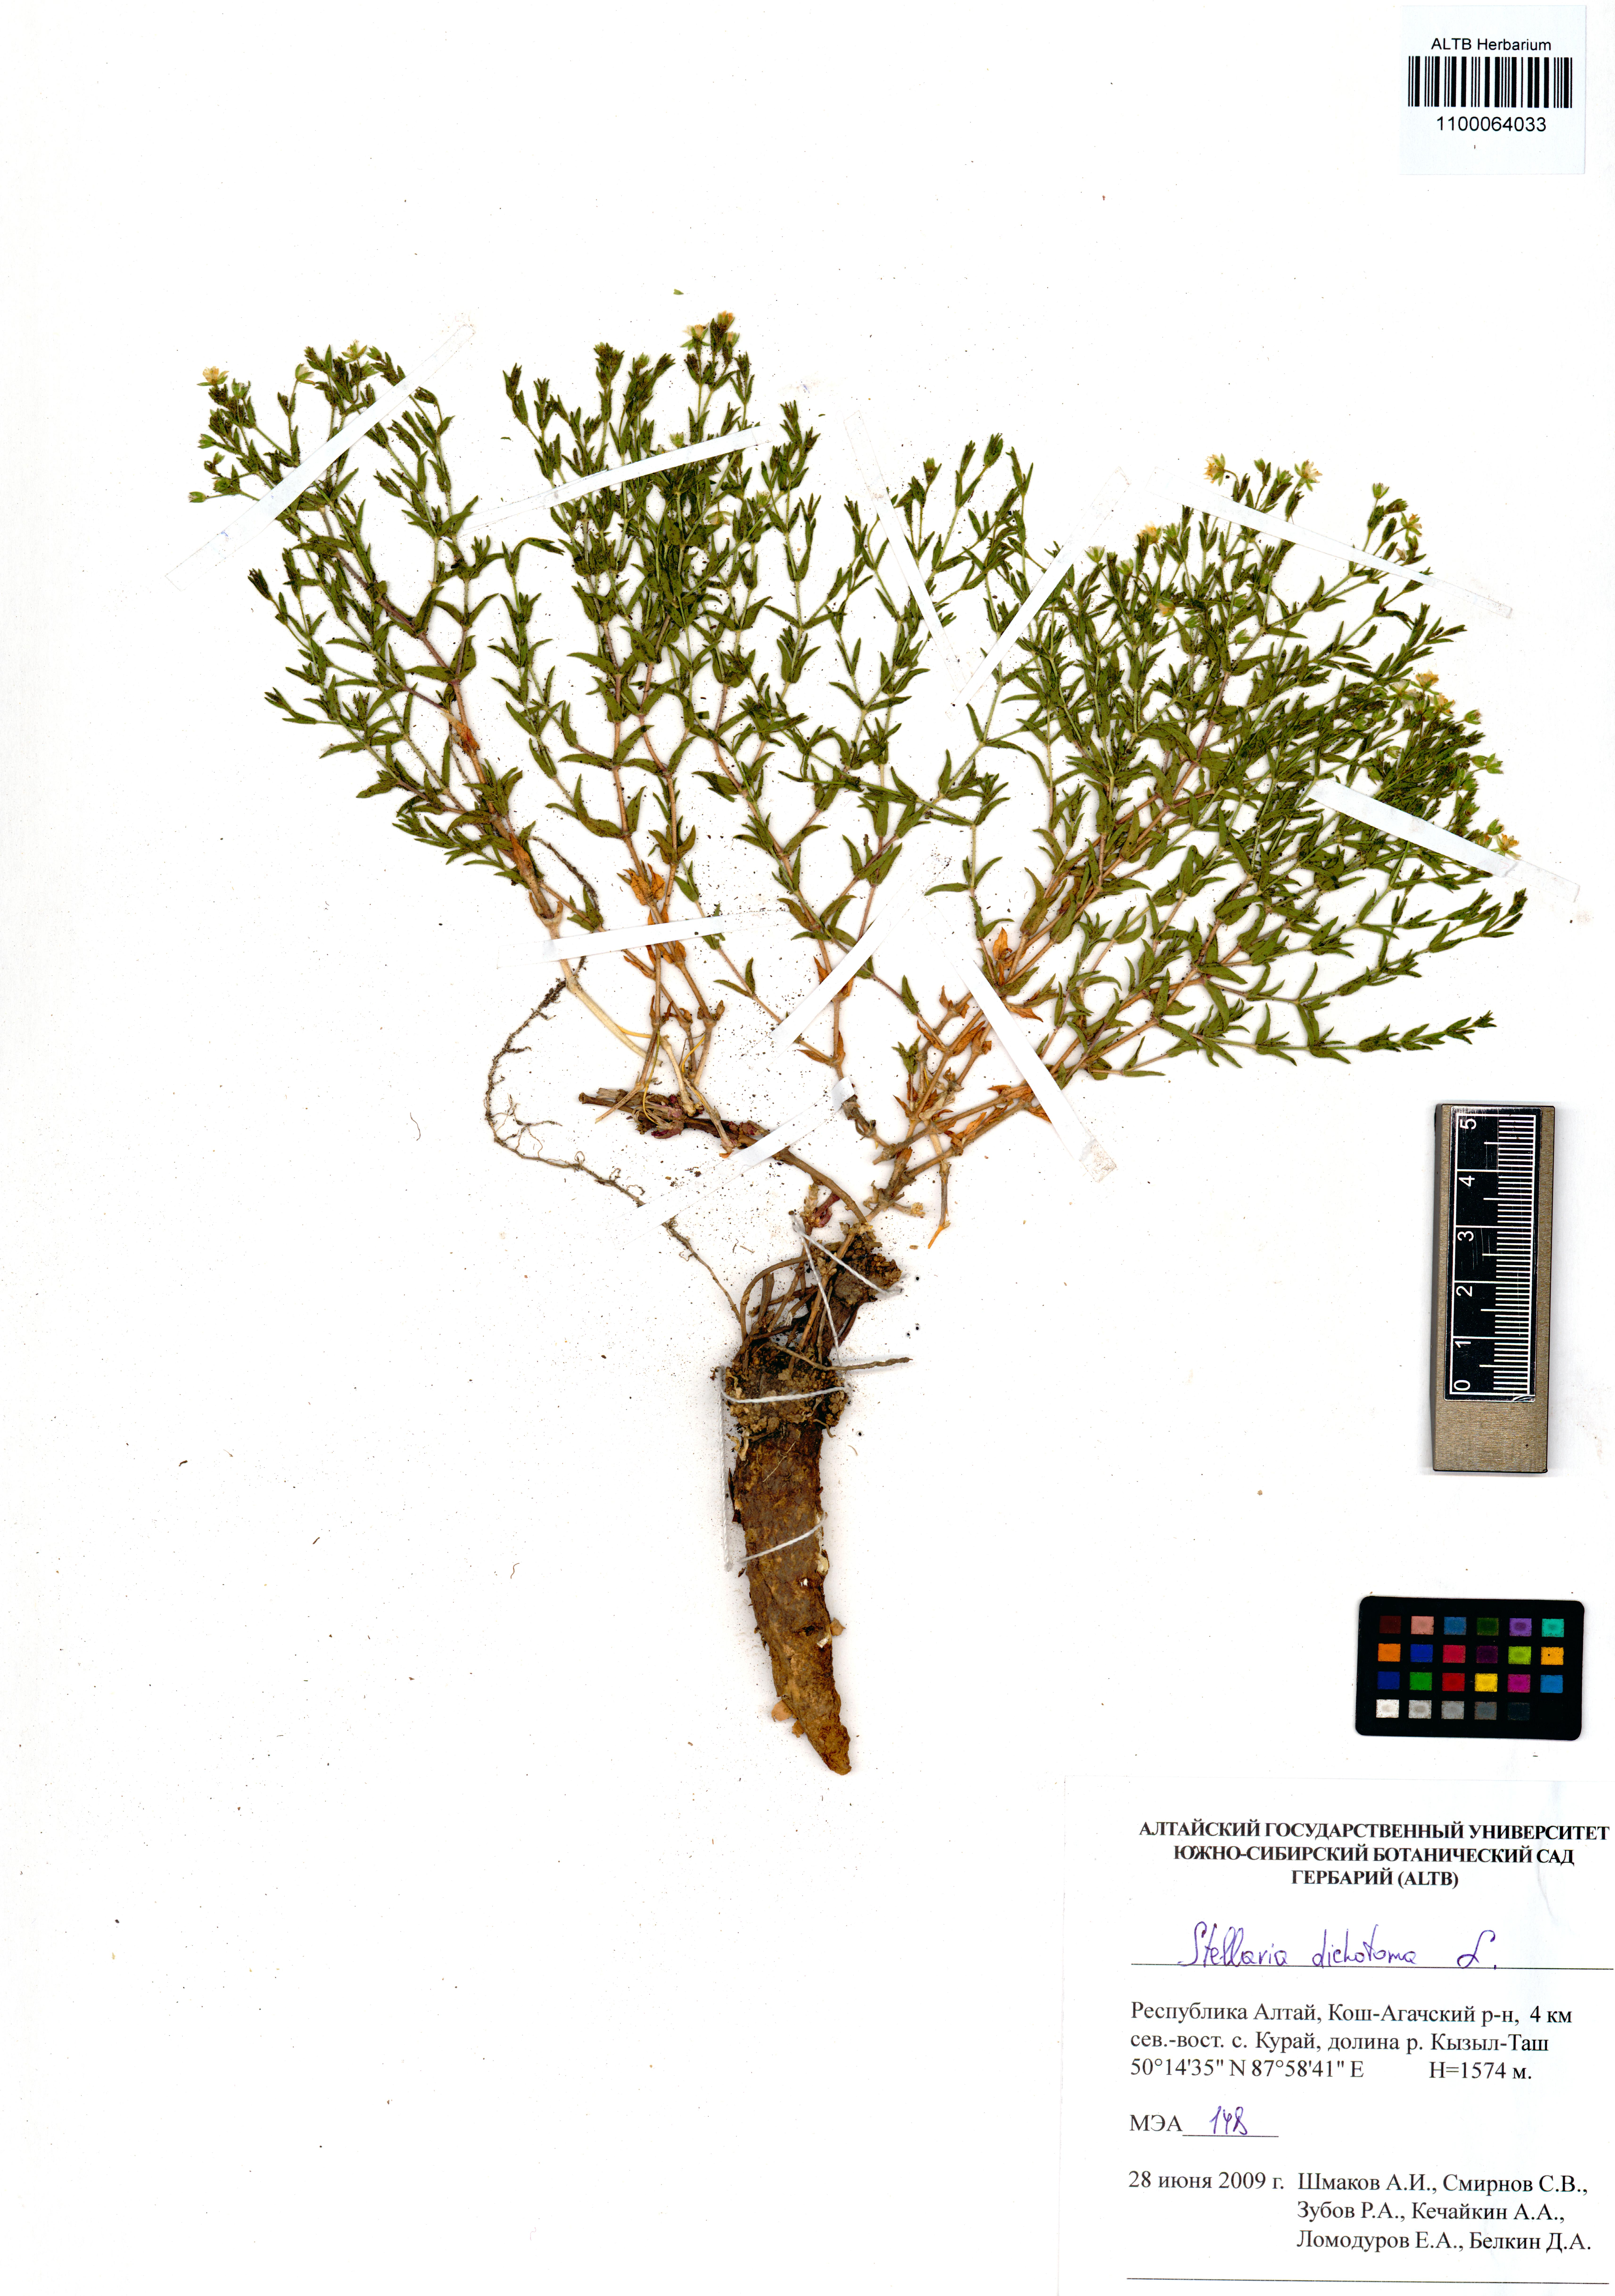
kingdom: Plantae
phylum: Tracheophyta
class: Magnoliopsida
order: Caryophyllales
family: Caryophyllaceae
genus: Mesostemma
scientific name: Mesostemma dichotomum
